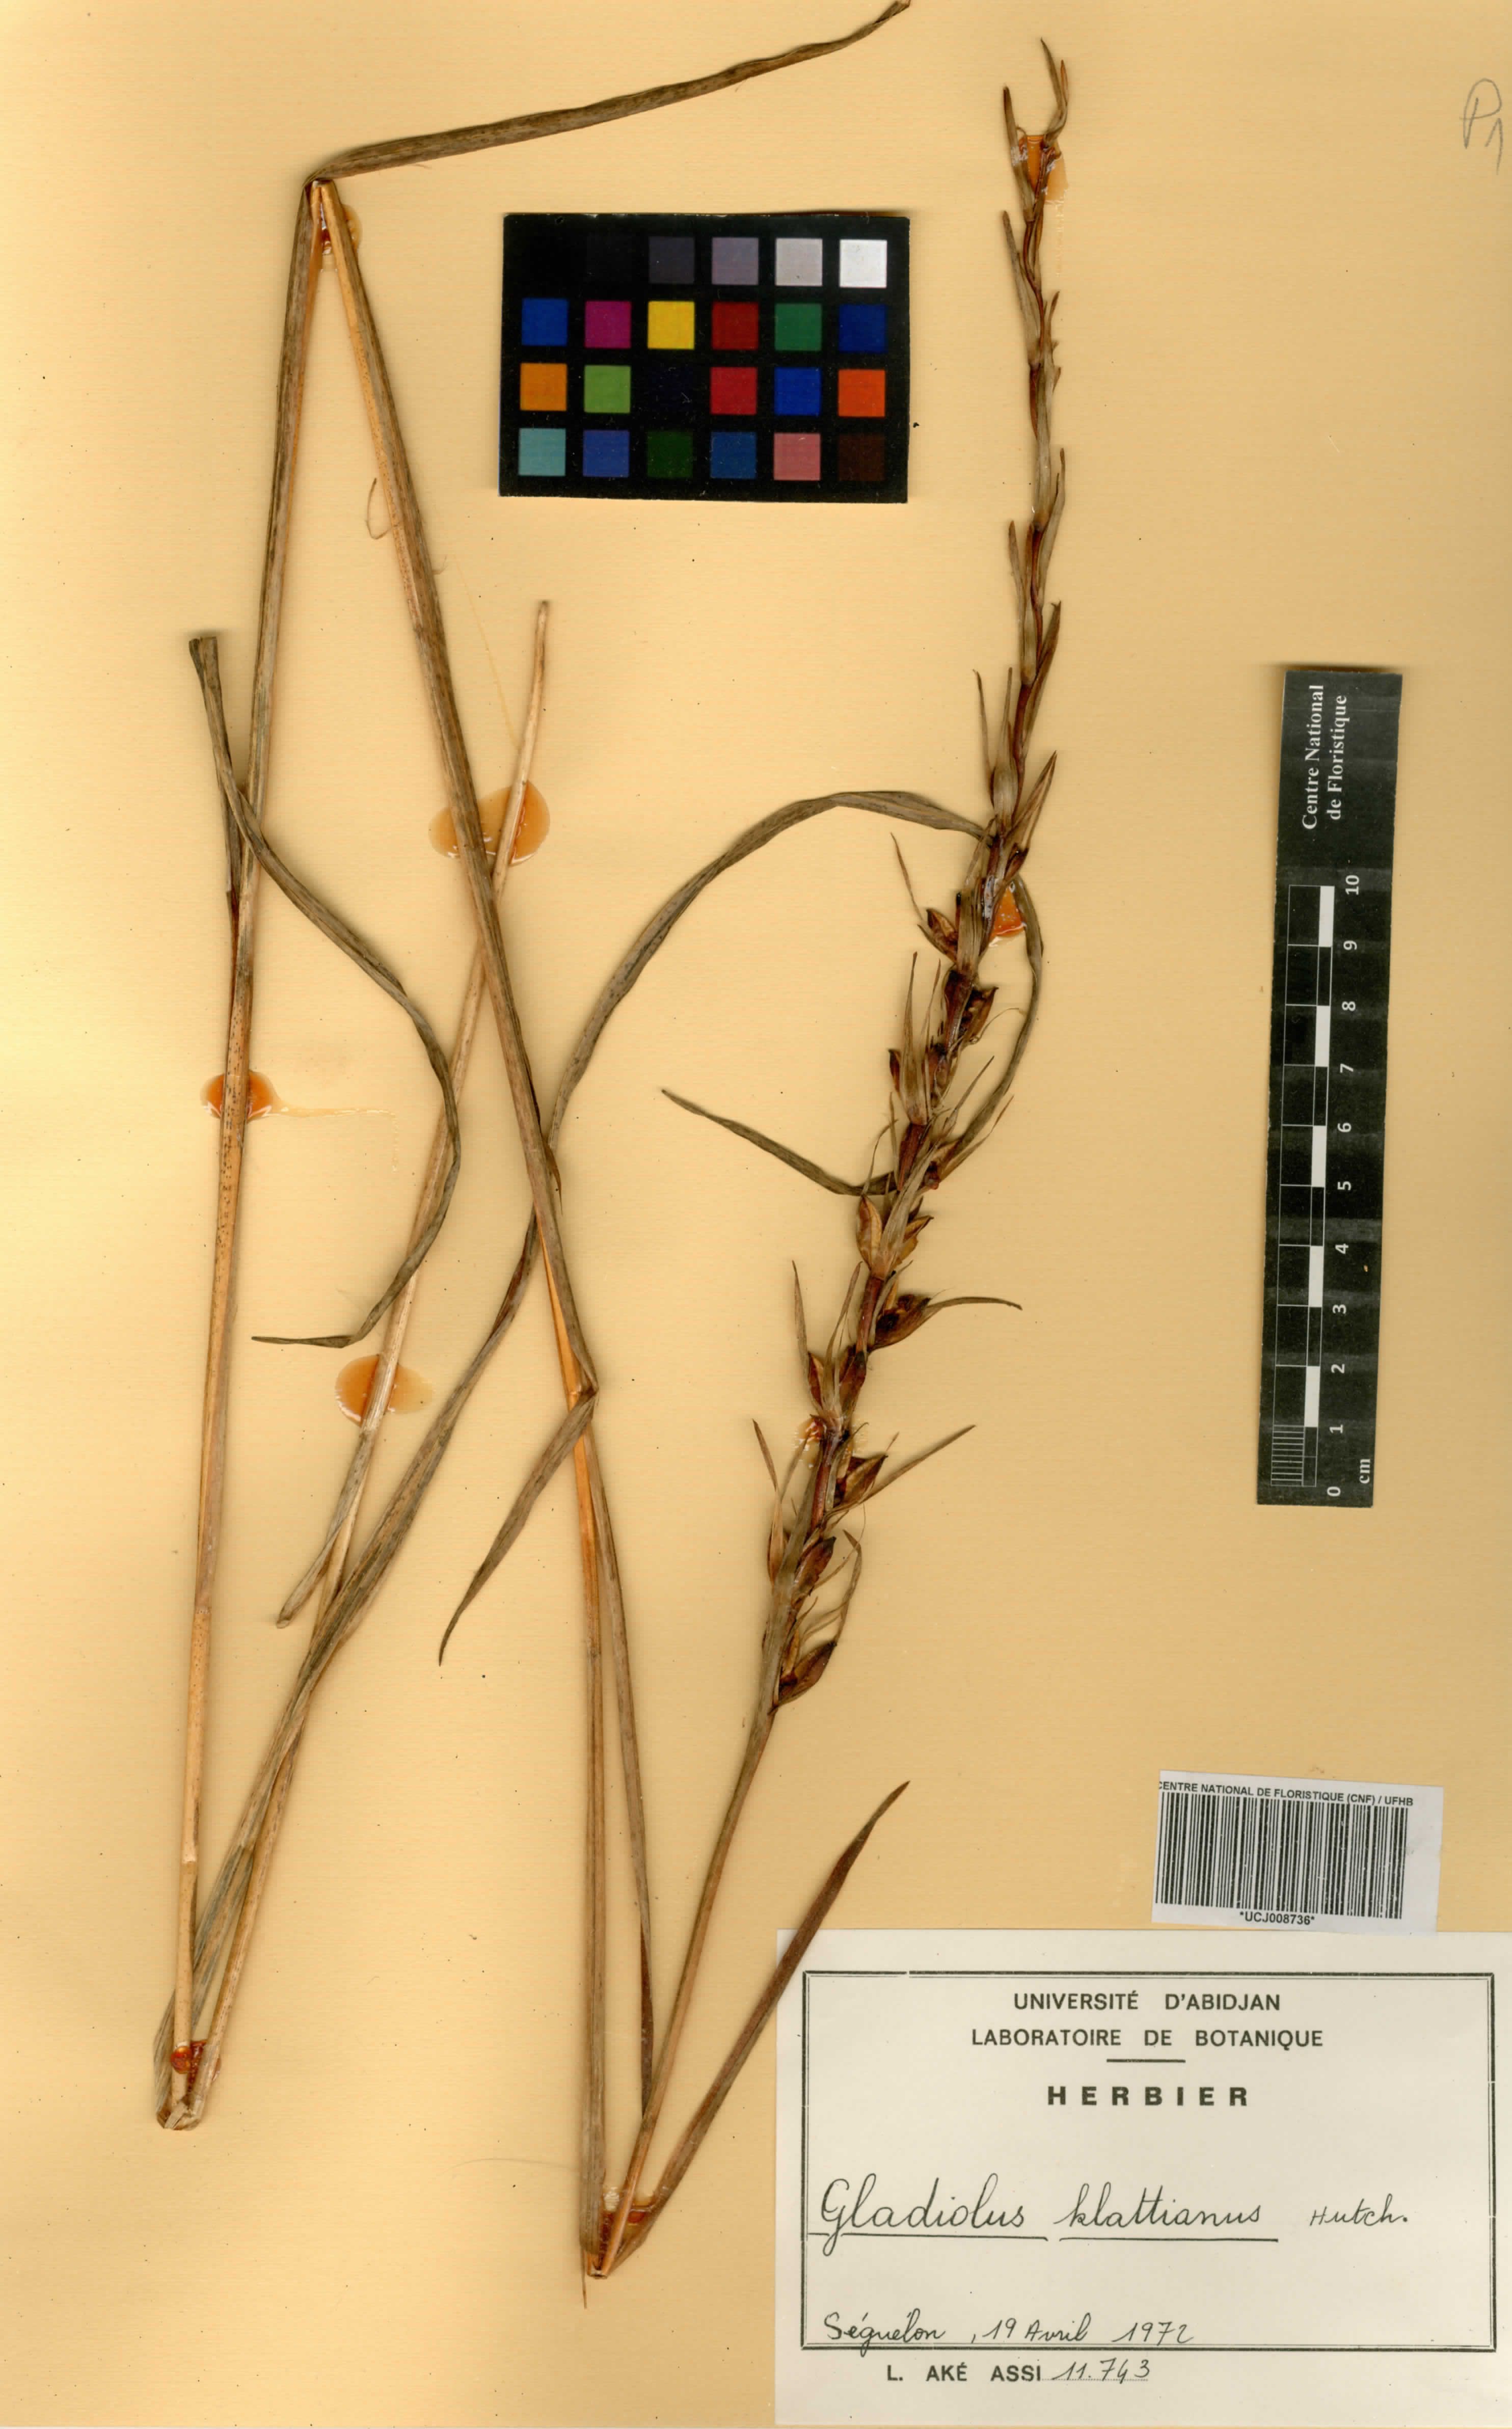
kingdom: Plantae
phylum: Tracheophyta
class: Liliopsida
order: Asparagales
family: Iridaceae
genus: Gladiolus
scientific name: Gladiolus gregarius
